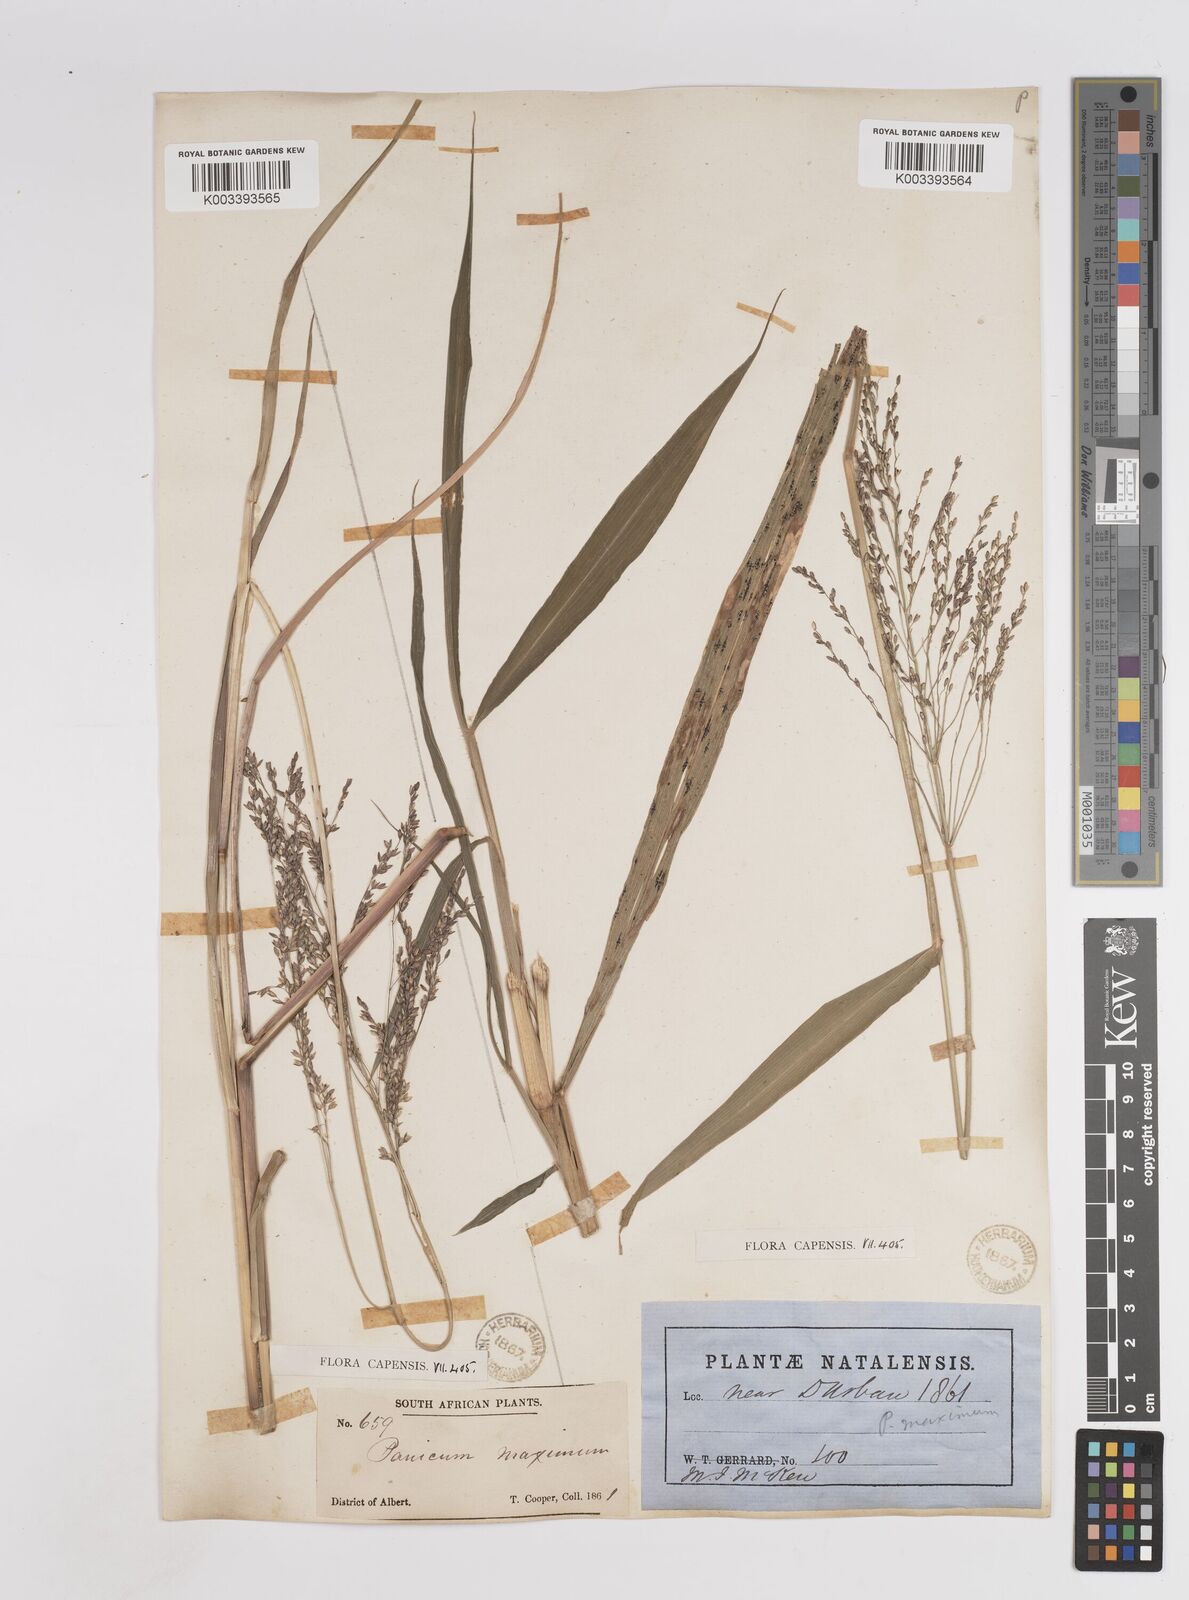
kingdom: Plantae
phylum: Tracheophyta
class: Liliopsida
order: Poales
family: Poaceae
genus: Megathyrsus
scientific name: Megathyrsus maximus
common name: Guineagrass
